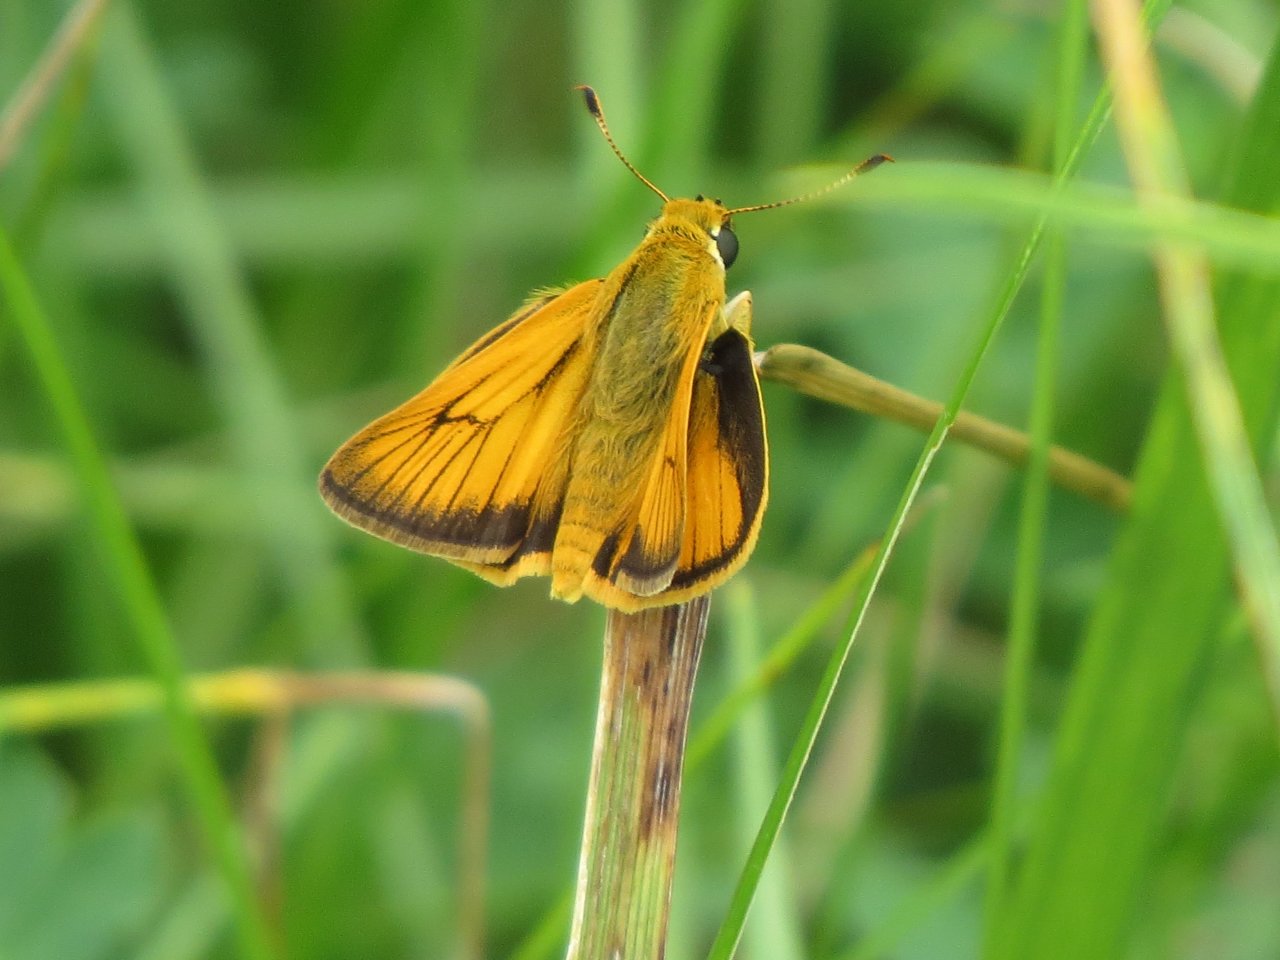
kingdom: Animalia
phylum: Arthropoda
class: Insecta
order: Lepidoptera
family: Hesperiidae
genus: Atrytone
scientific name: Atrytone delaware
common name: Delaware Skipper
